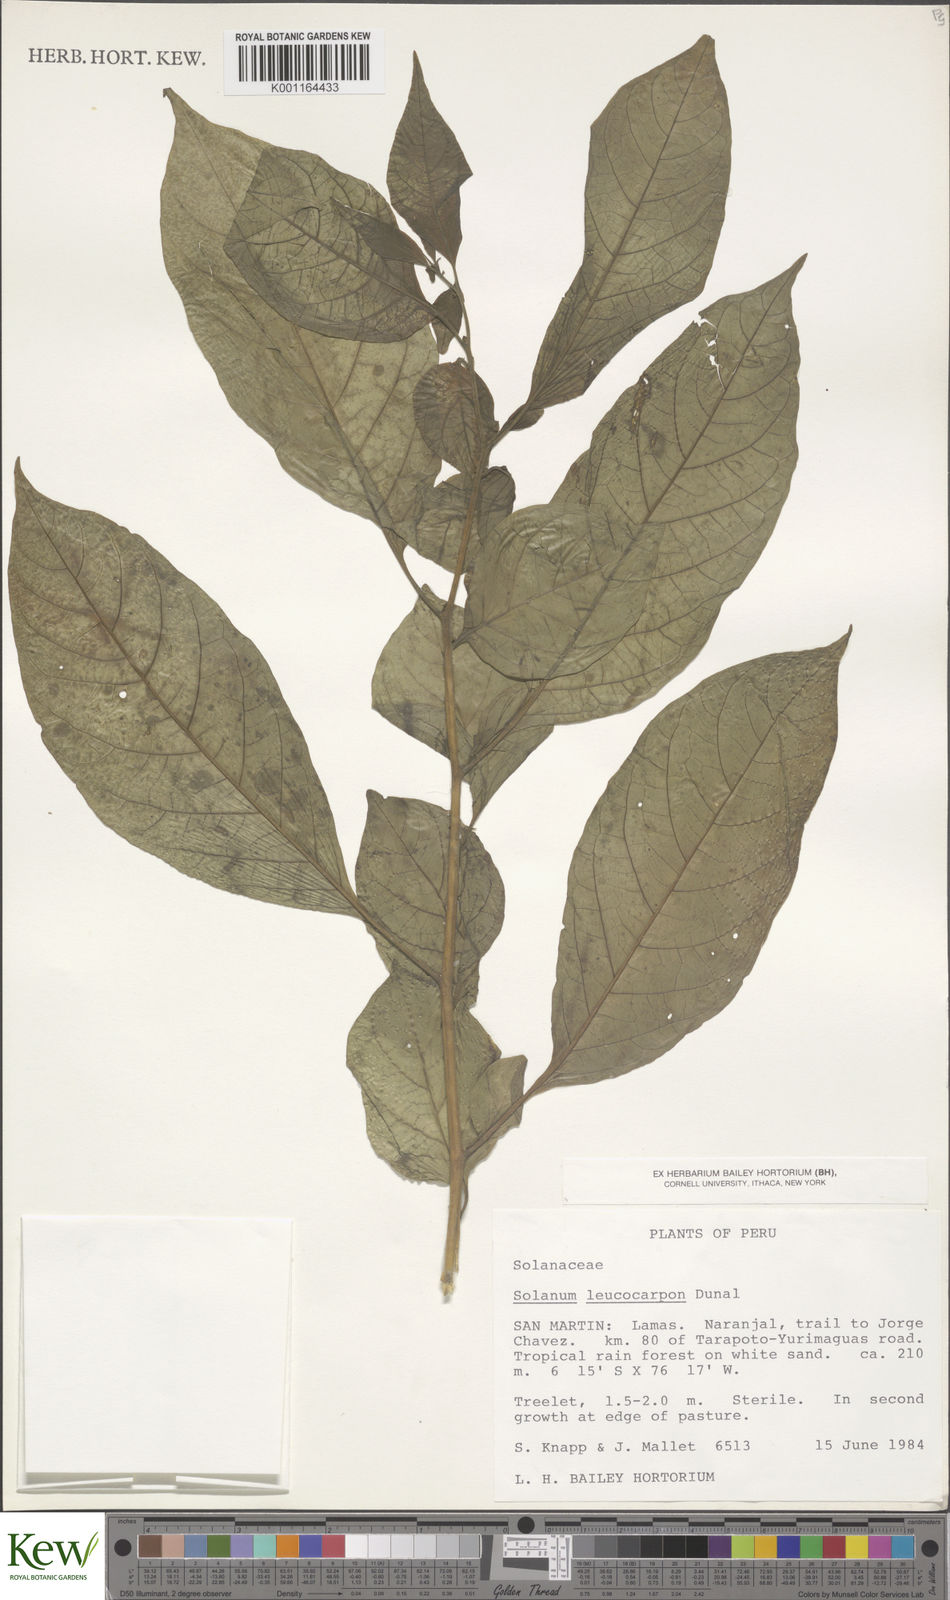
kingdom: Plantae
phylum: Tracheophyta
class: Magnoliopsida
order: Solanales
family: Solanaceae
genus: Solanum
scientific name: Solanum leucocarpon
